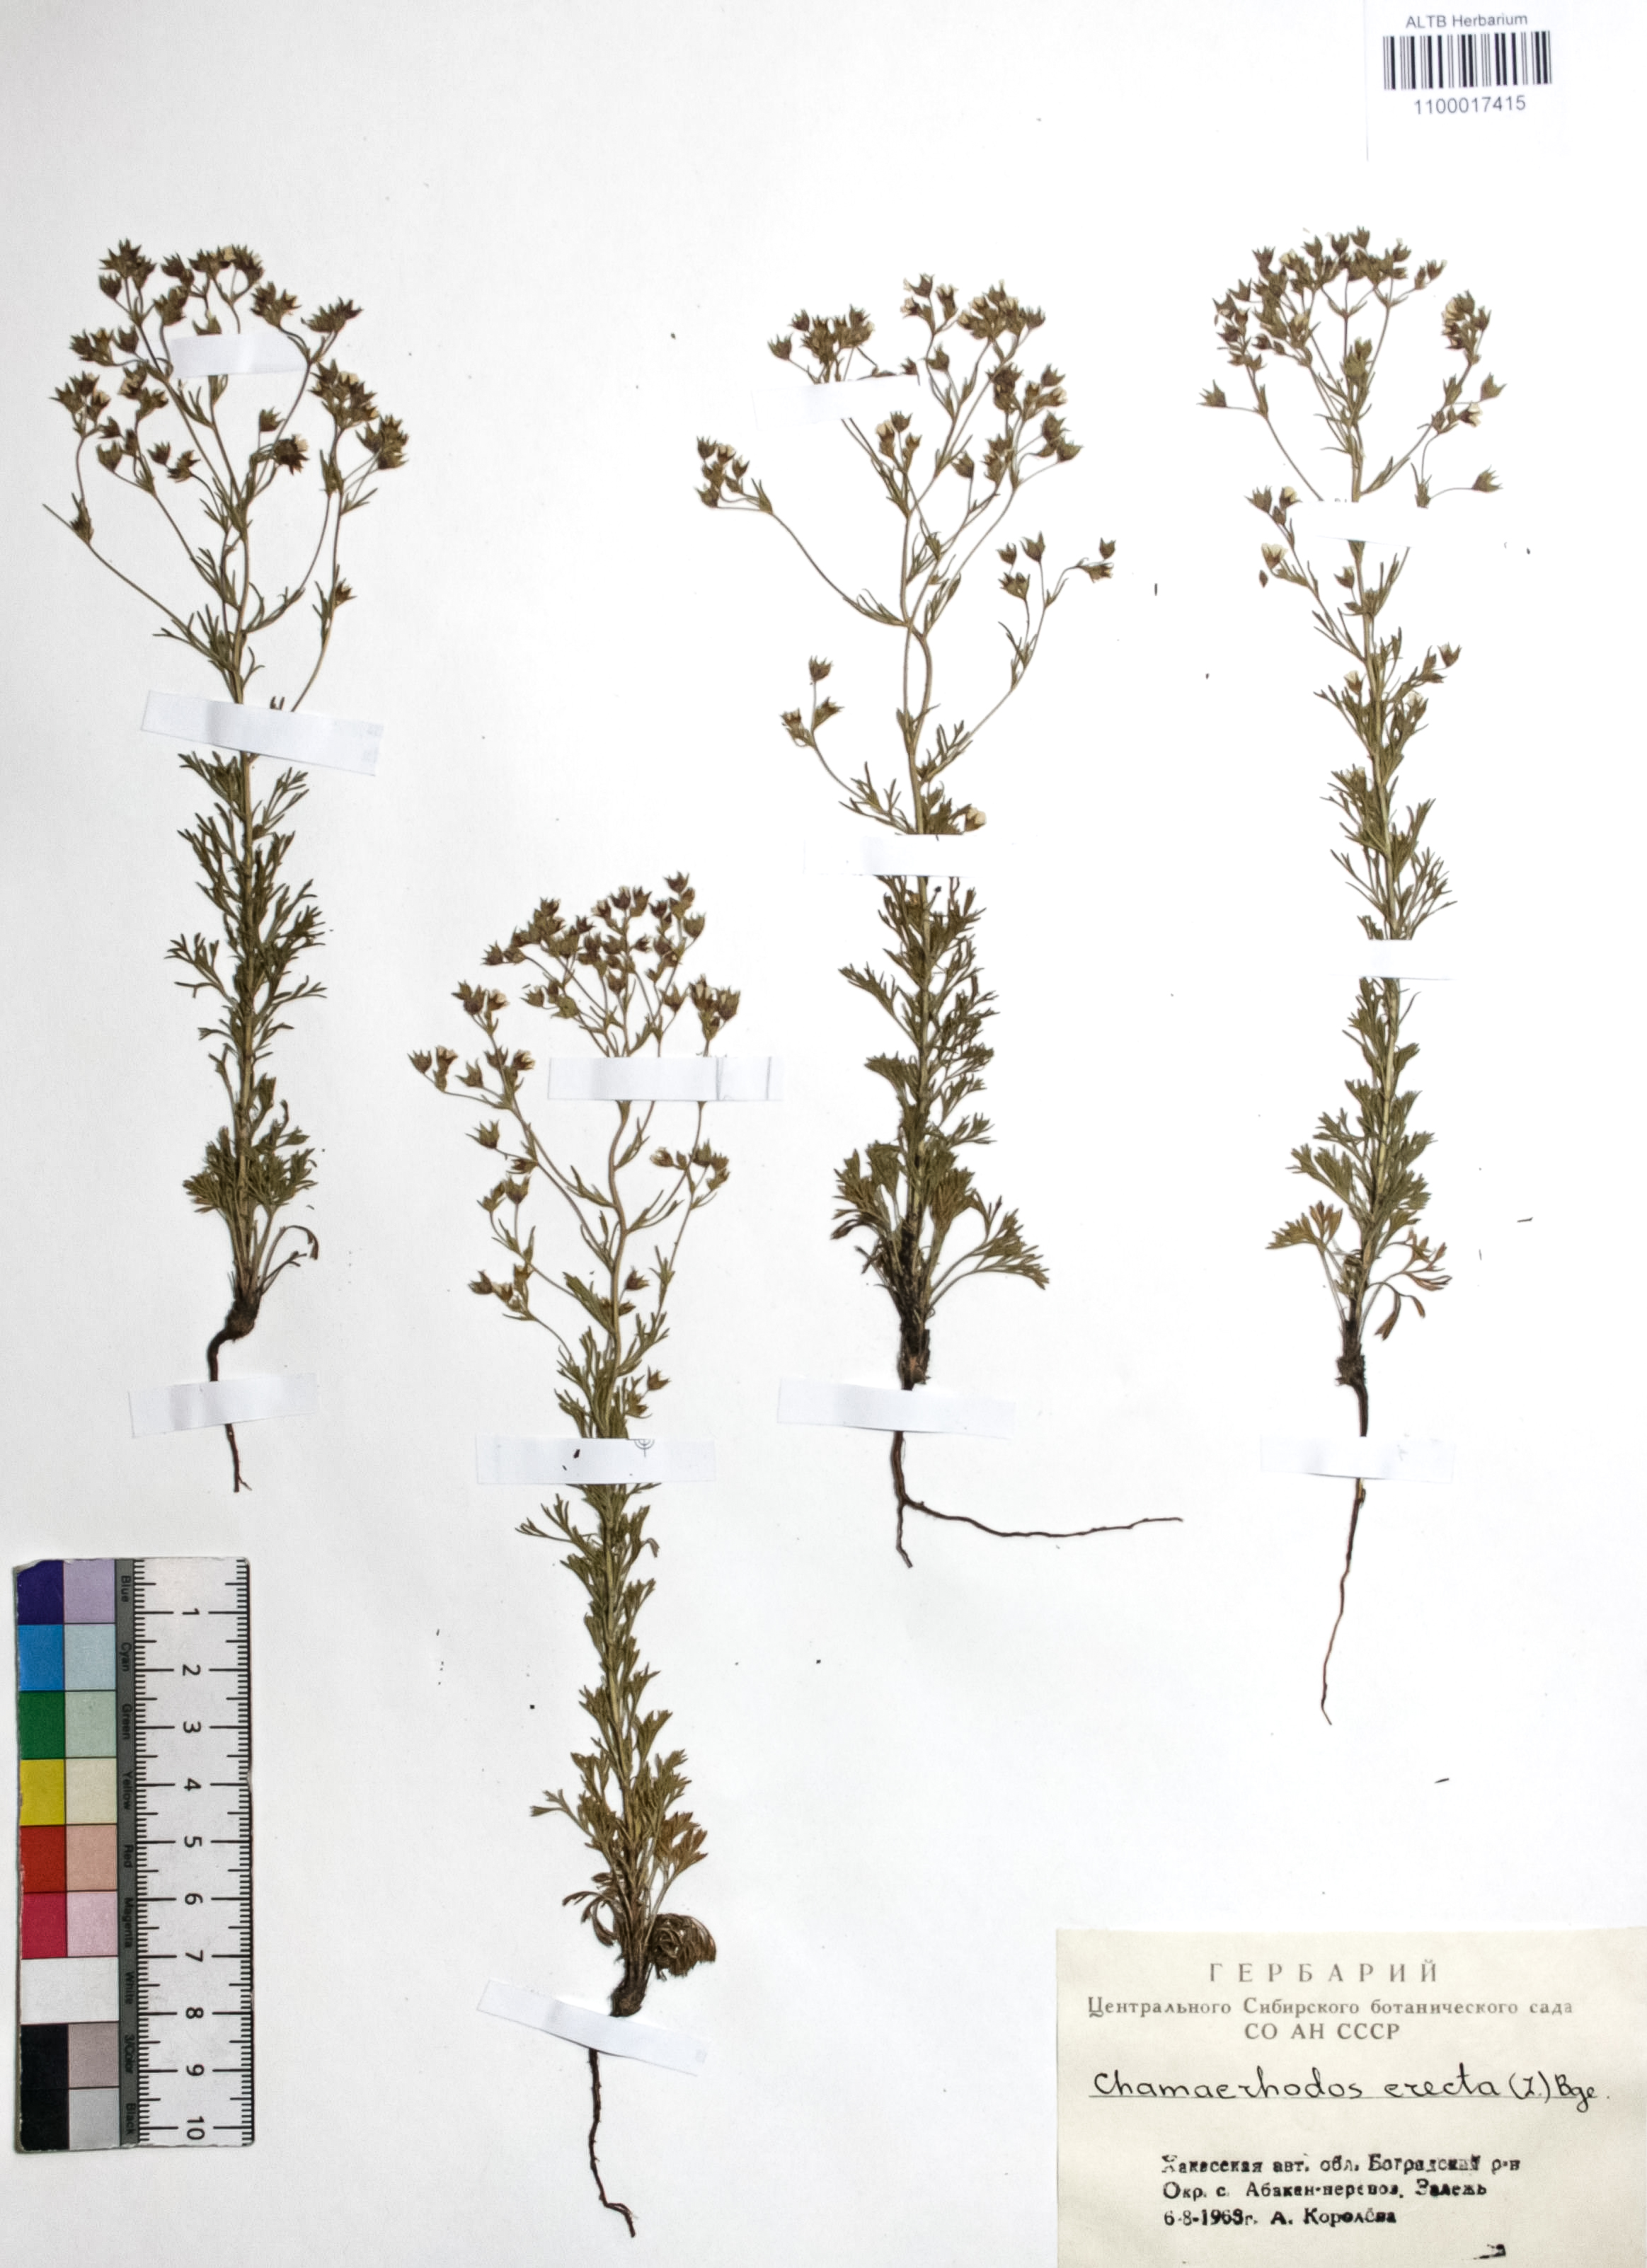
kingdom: Plantae
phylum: Tracheophyta
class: Magnoliopsida
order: Rosales
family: Rosaceae
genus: Chamaerhodos
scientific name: Chamaerhodos erecta
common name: American chamaerhodos
